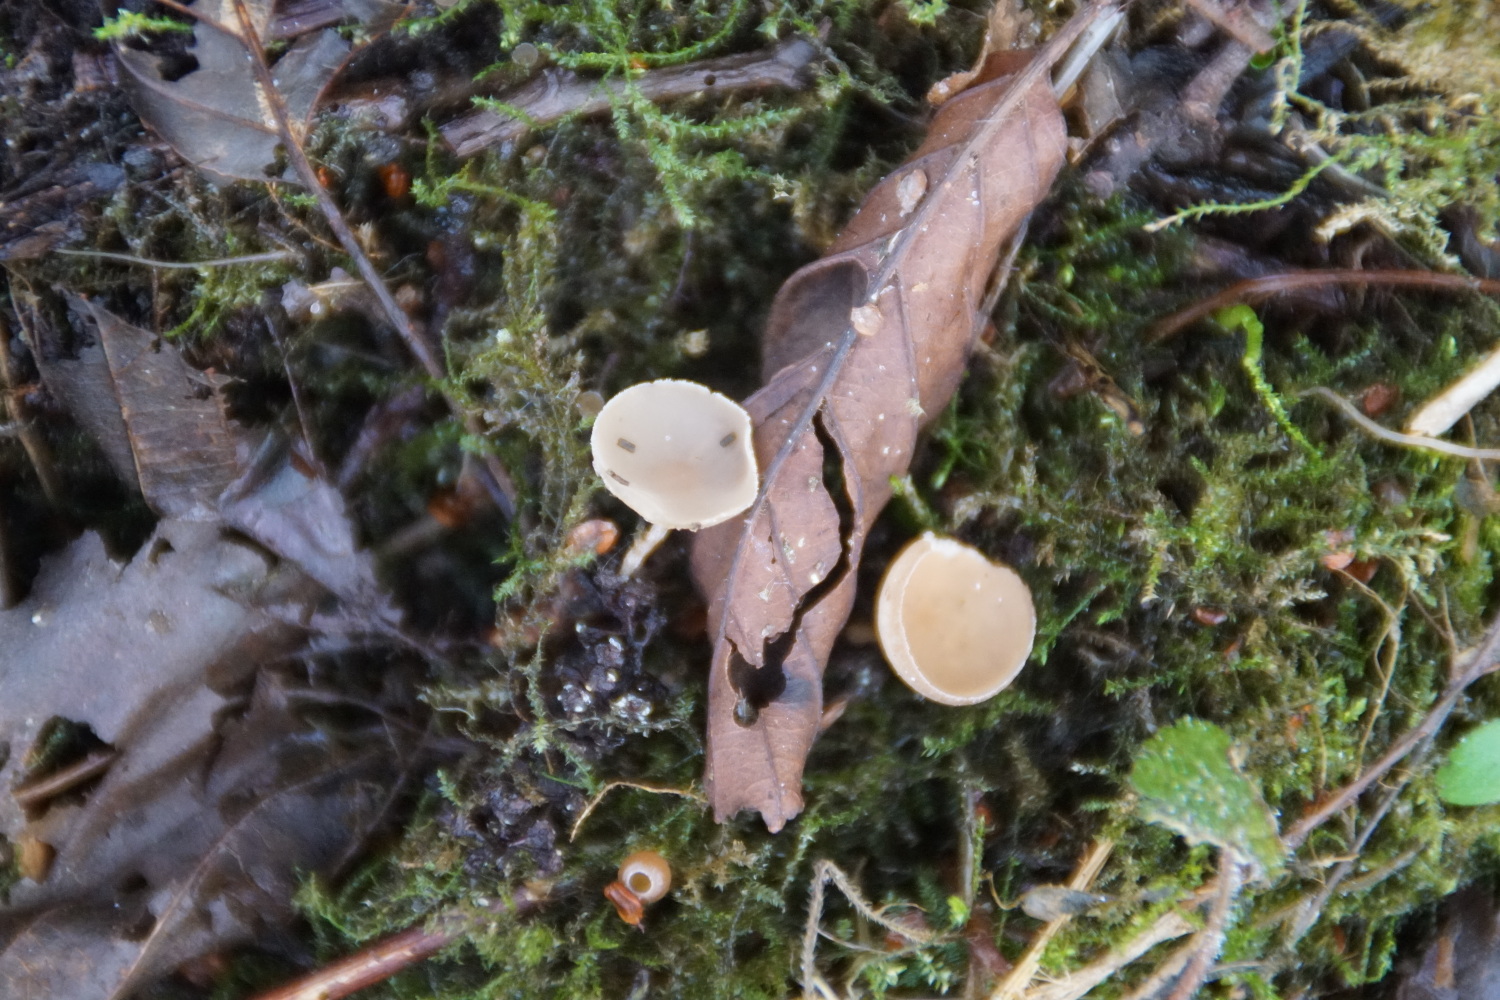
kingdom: Fungi
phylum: Ascomycota
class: Leotiomycetes
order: Helotiales
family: Sclerotiniaceae
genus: Ciboria
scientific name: Ciboria amentacea
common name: ellerakle-knoldskive
